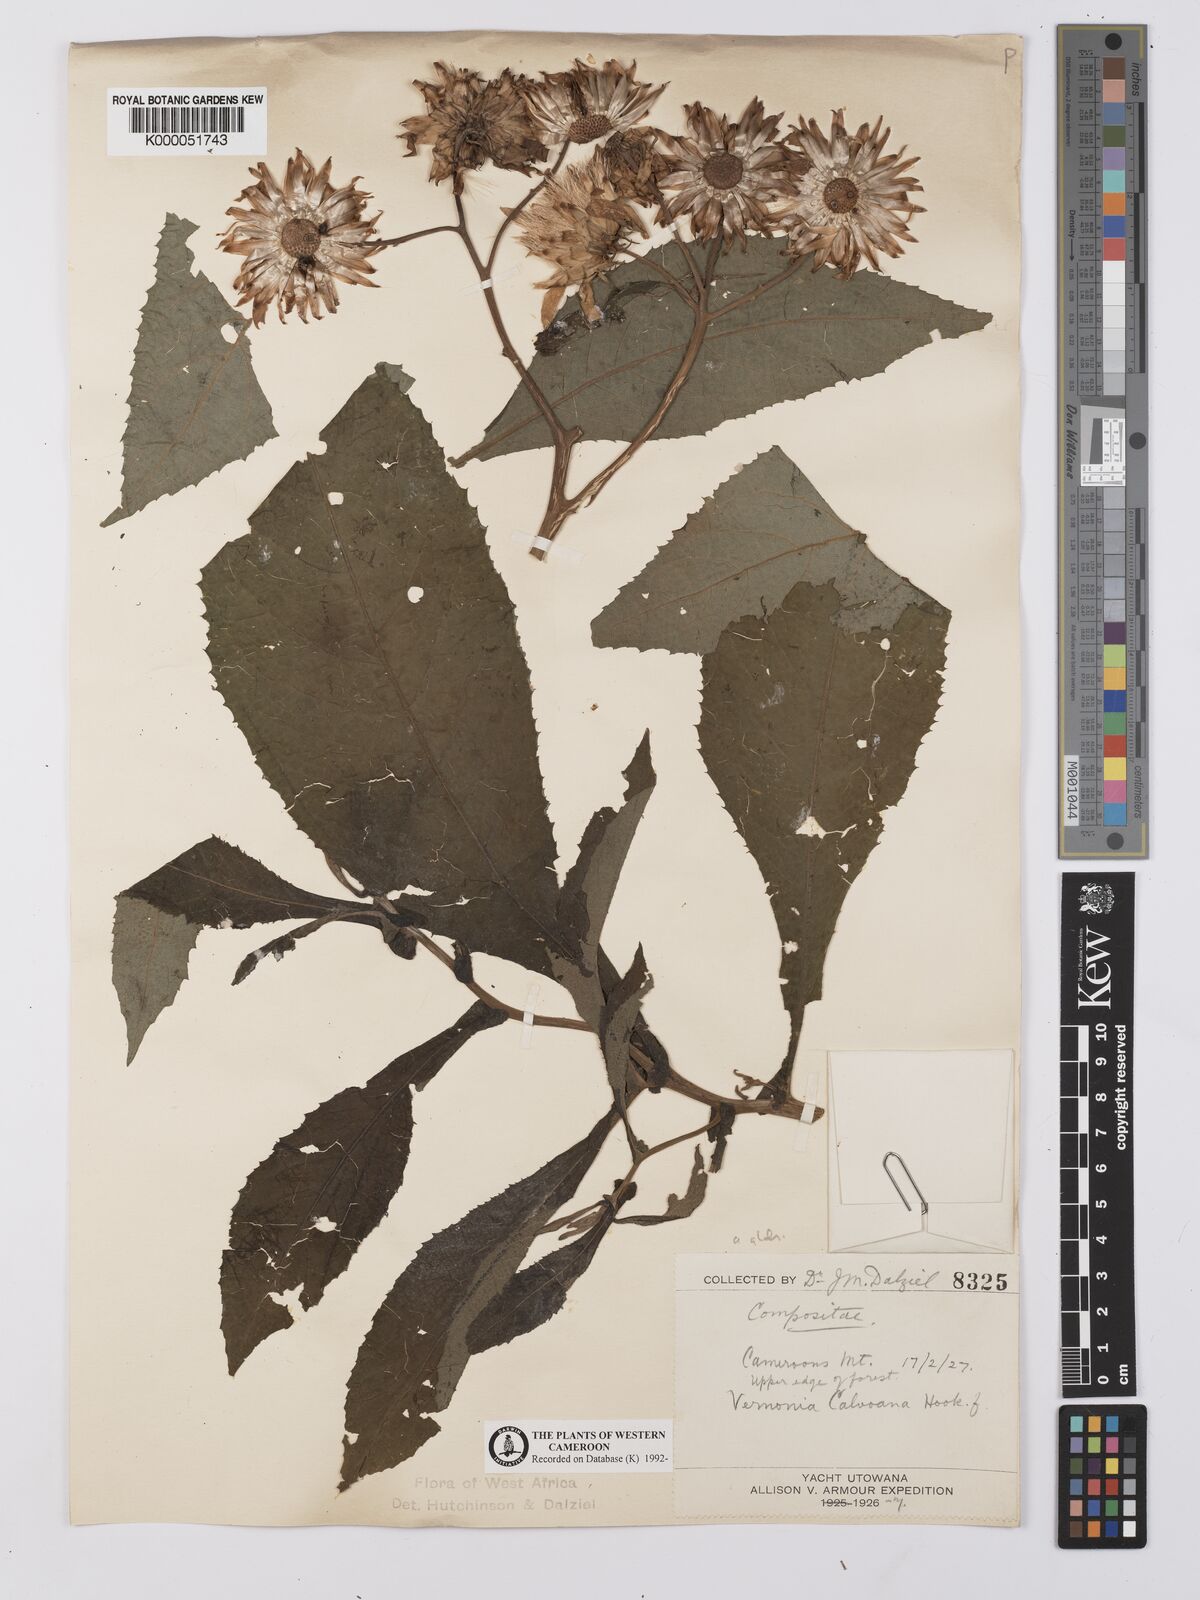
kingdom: Plantae
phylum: Tracheophyta
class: Magnoliopsida
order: Asterales
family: Asteraceae
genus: Baccharoides
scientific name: Baccharoides hymenolepis
